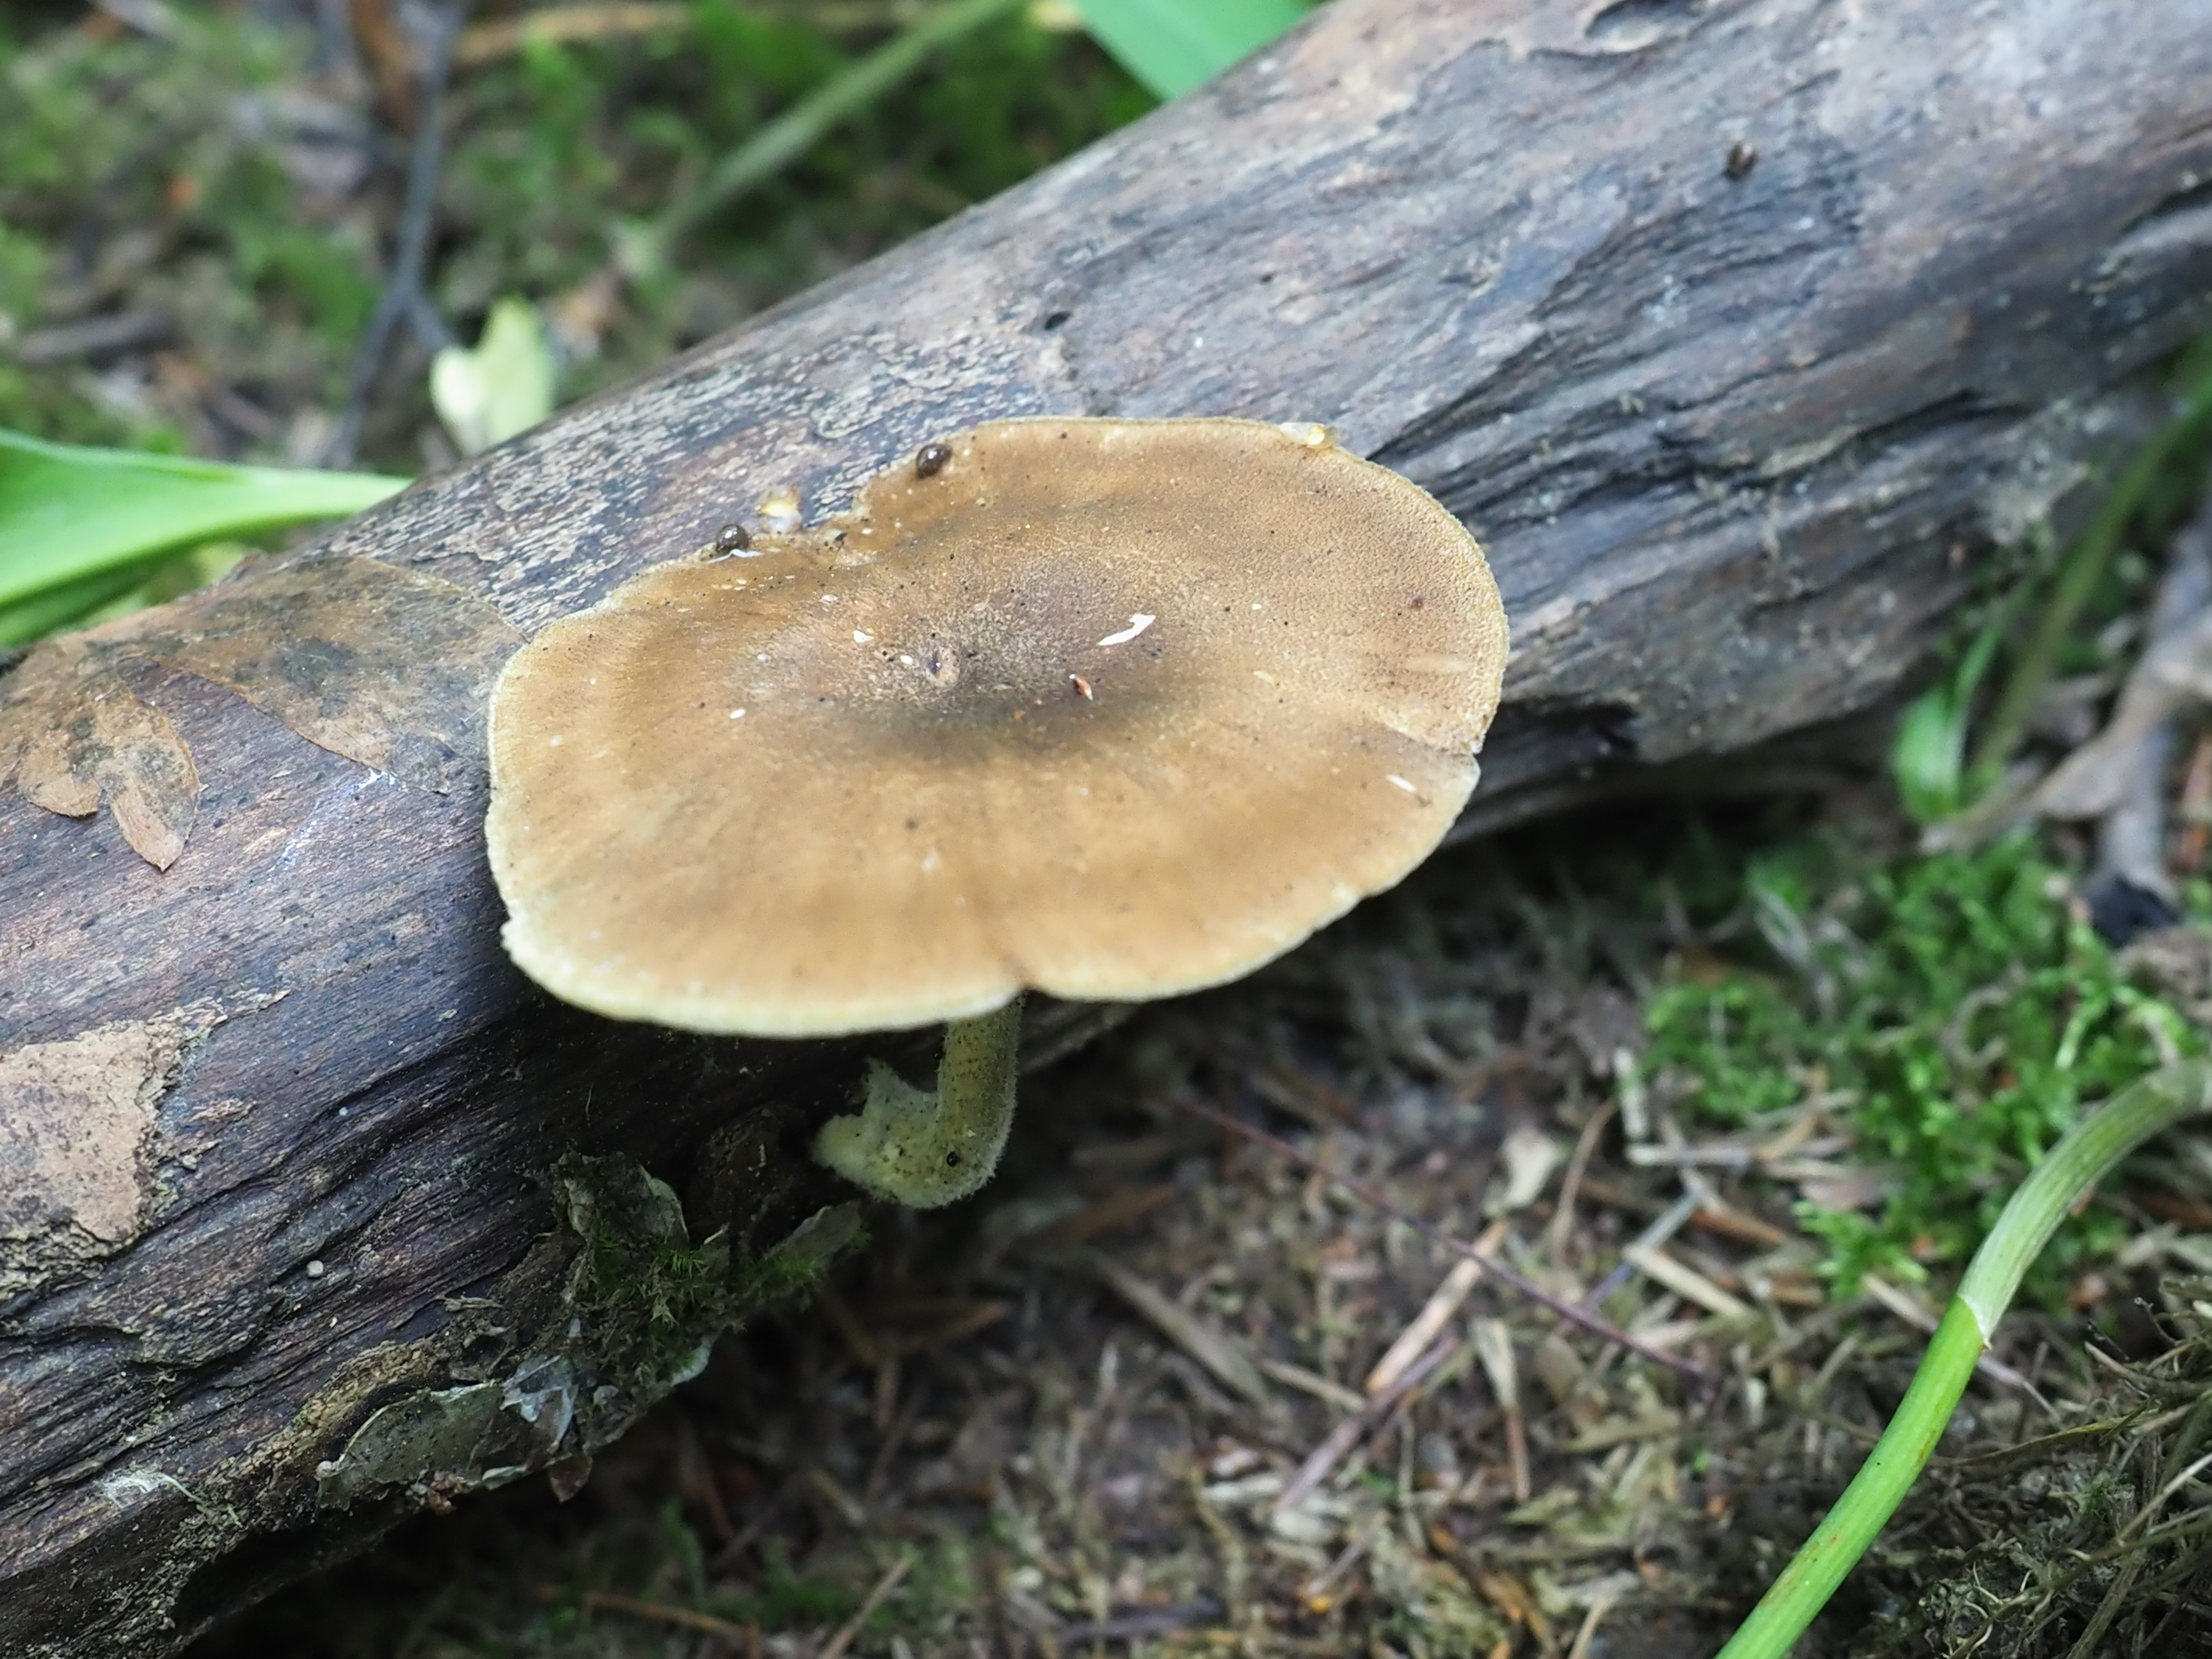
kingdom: Fungi
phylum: Basidiomycota
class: Agaricomycetes
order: Polyporales
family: Polyporaceae
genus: Lentinus
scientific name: Lentinus substrictus
